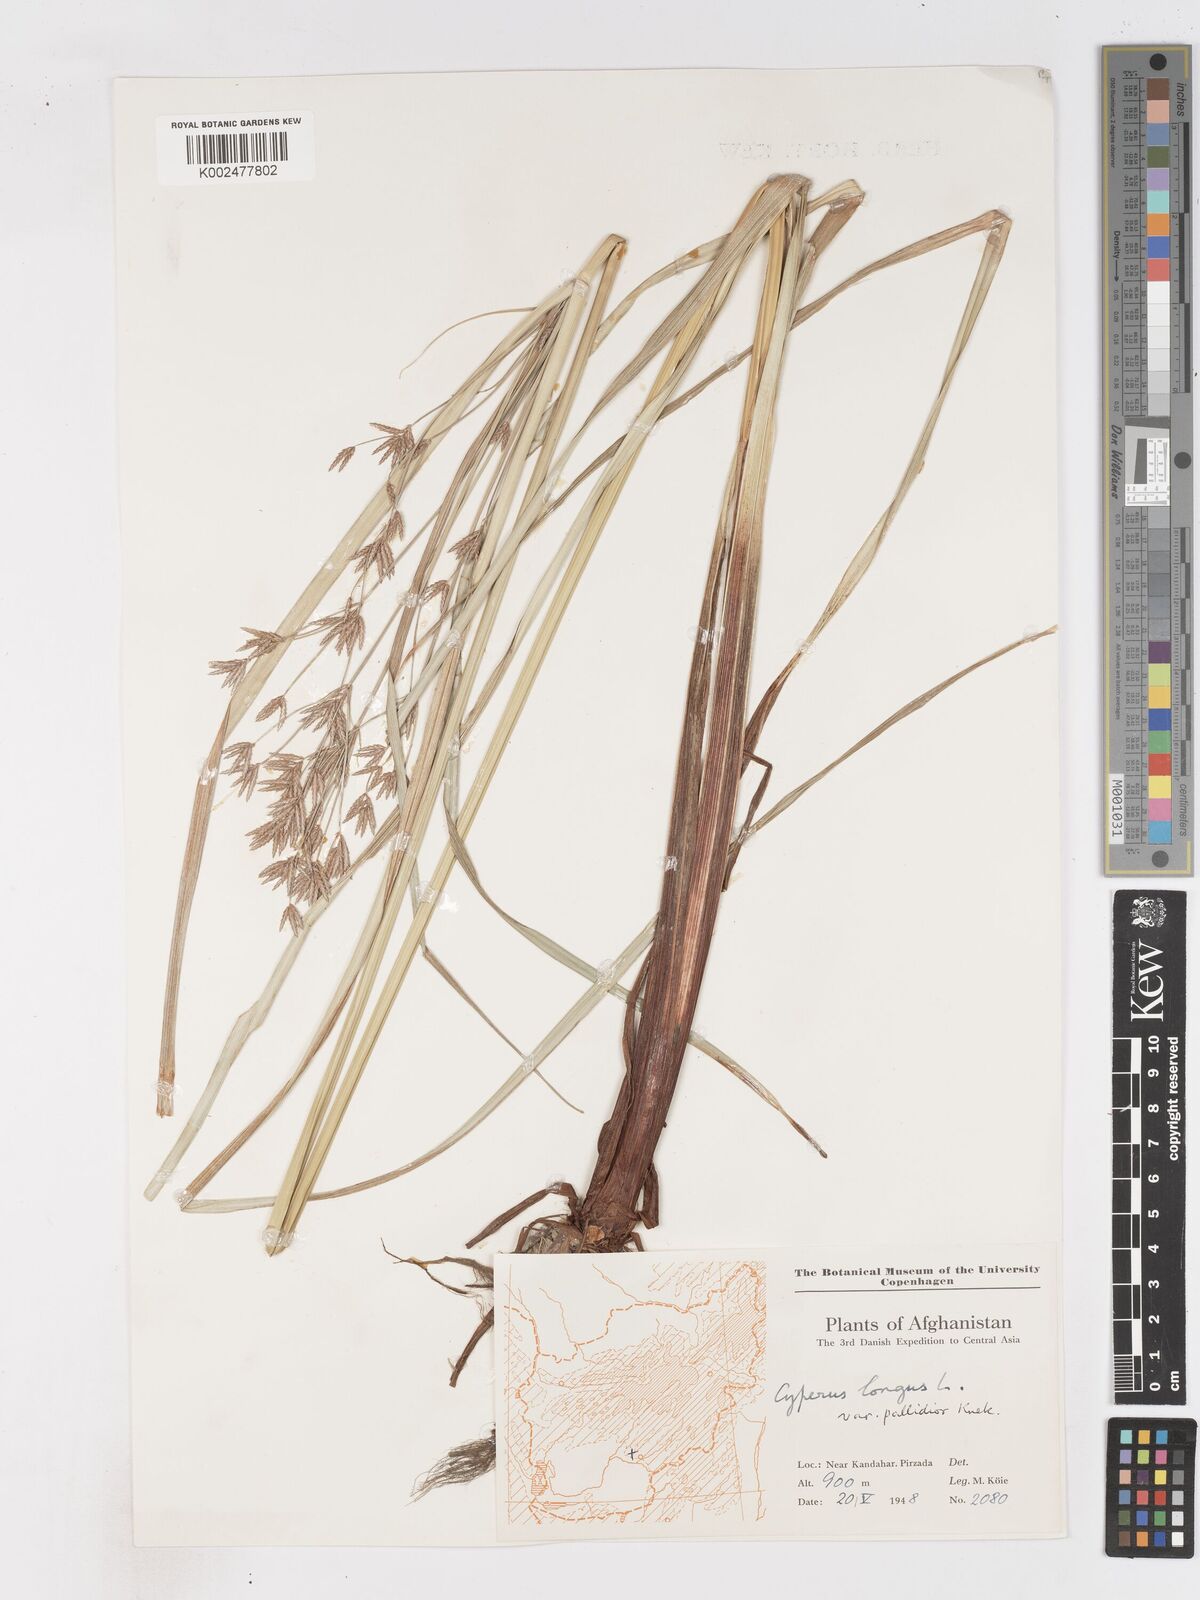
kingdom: Plantae
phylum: Tracheophyta
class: Liliopsida
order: Poales
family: Cyperaceae
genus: Cyperus
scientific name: Cyperus longus
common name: Galingale
